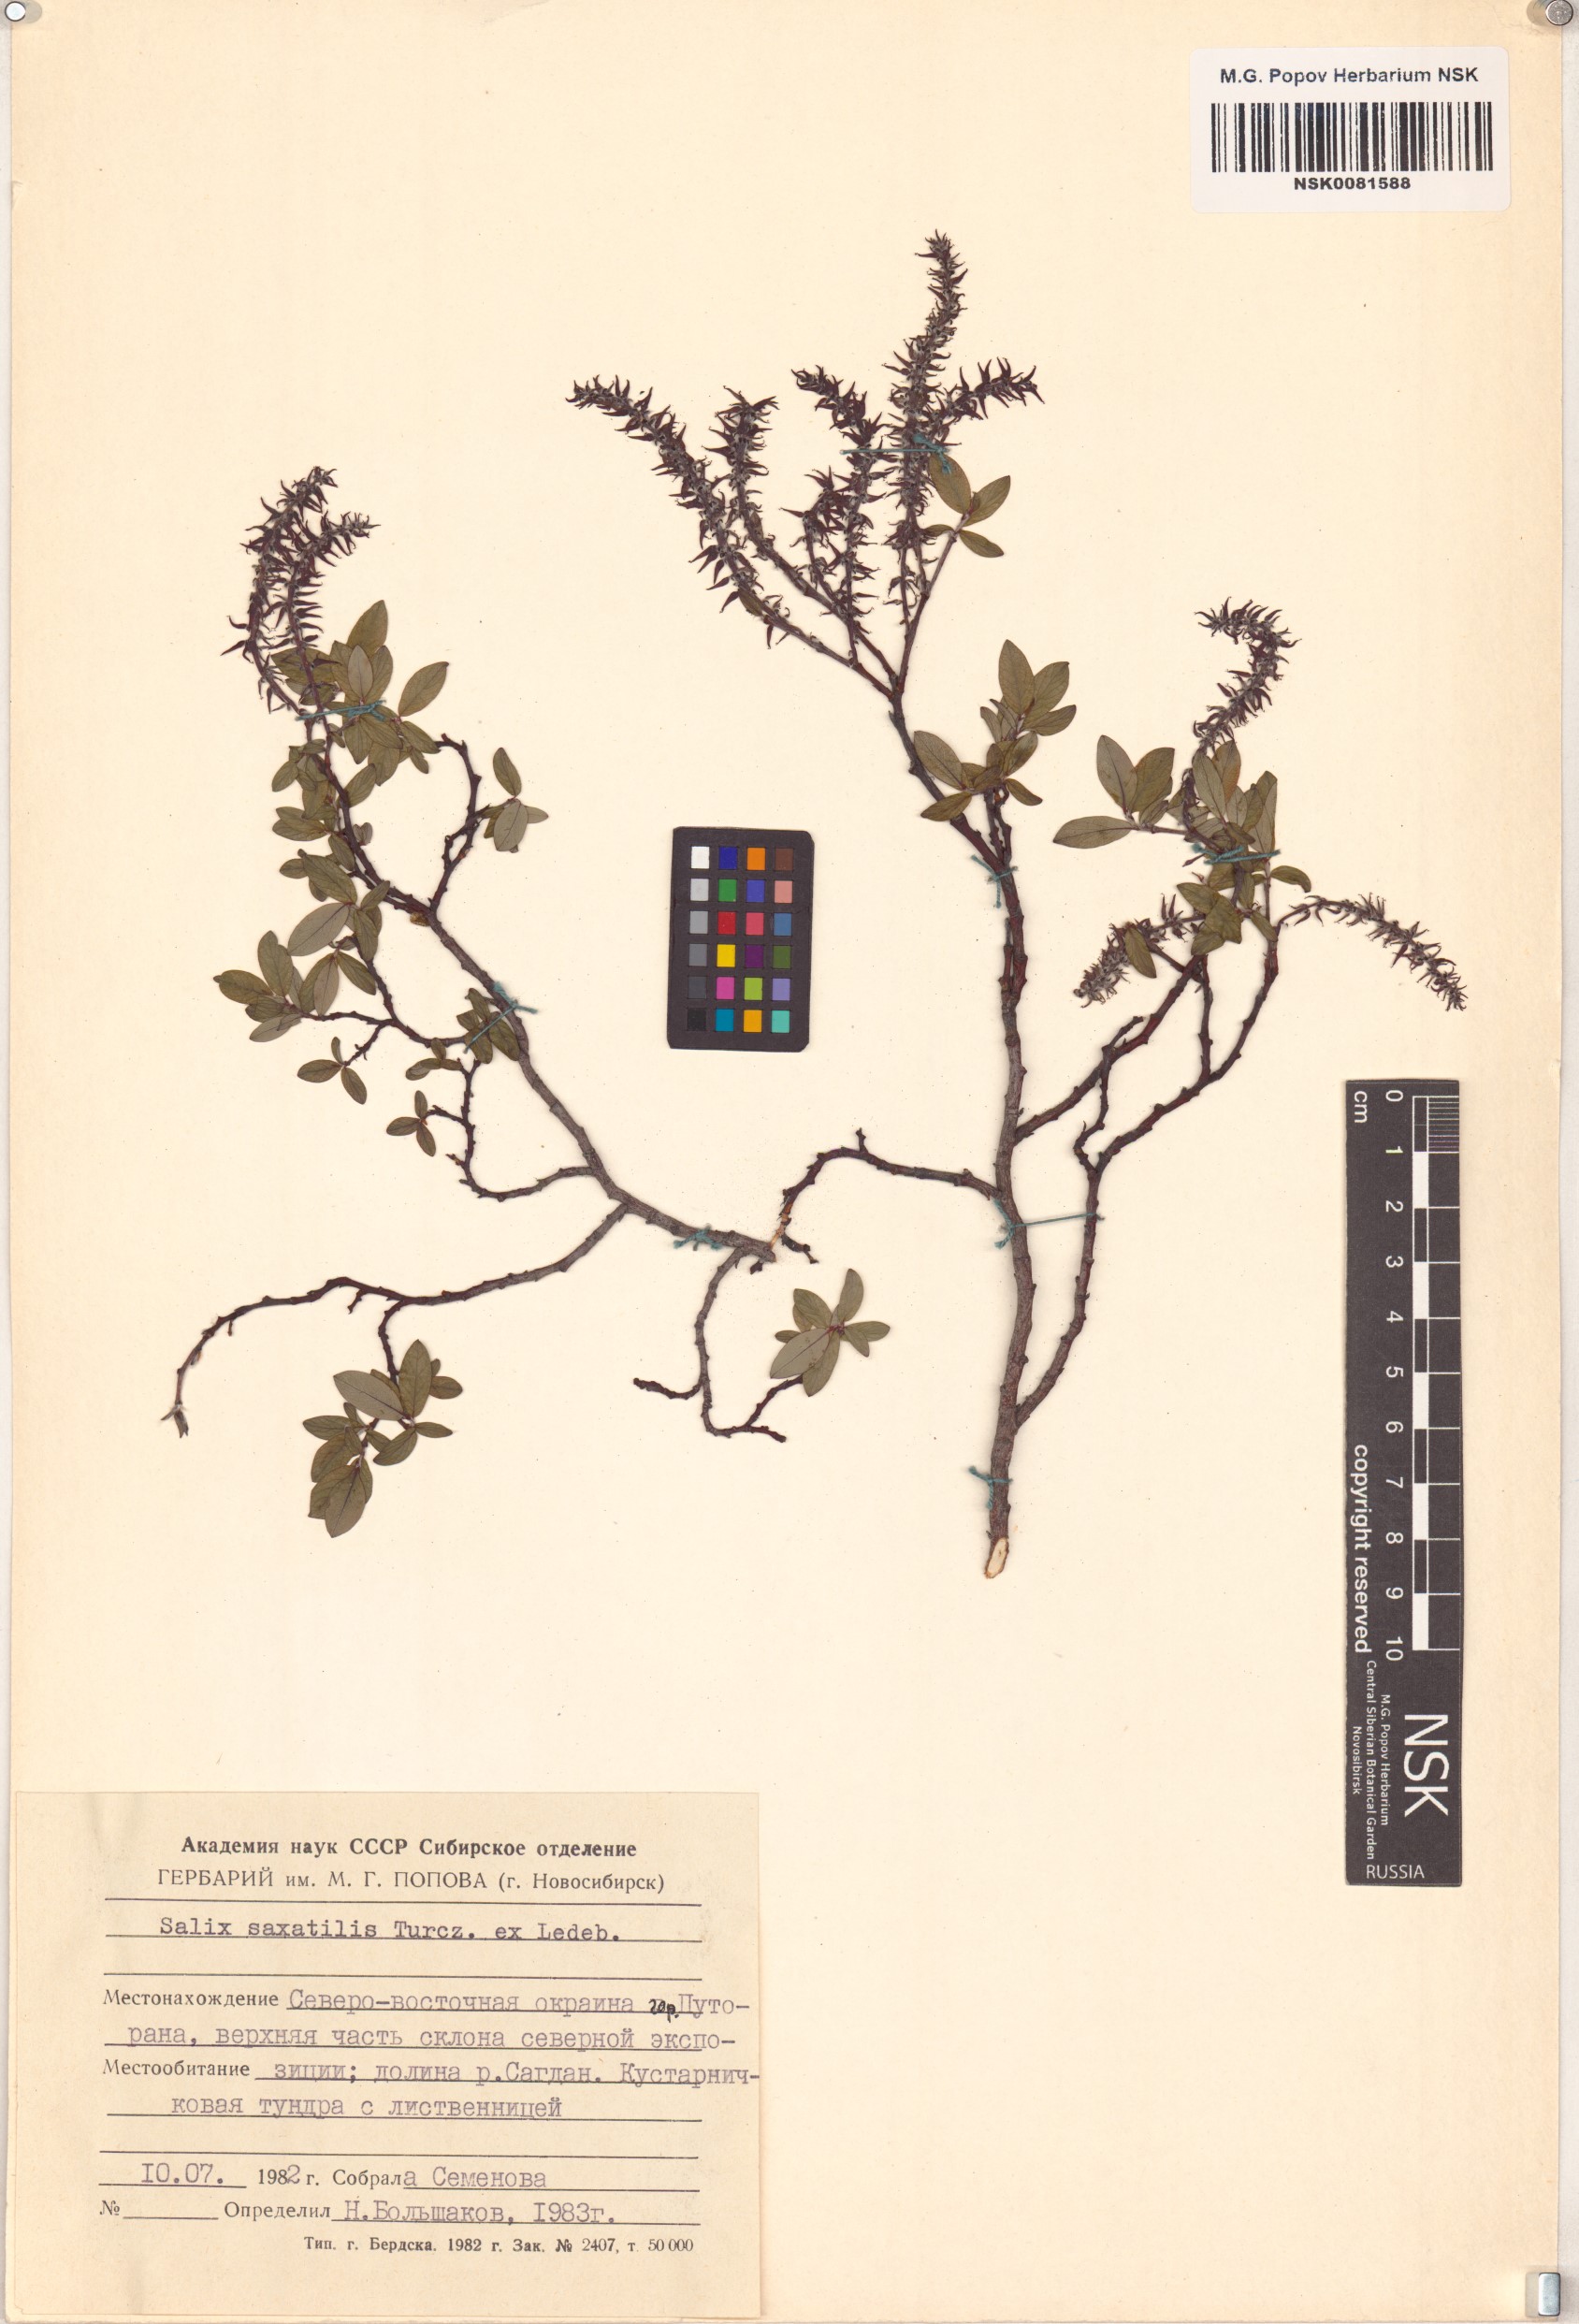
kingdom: Plantae
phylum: Tracheophyta
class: Magnoliopsida
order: Malpighiales
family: Salicaceae
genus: Salix
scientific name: Salix saxatilis
